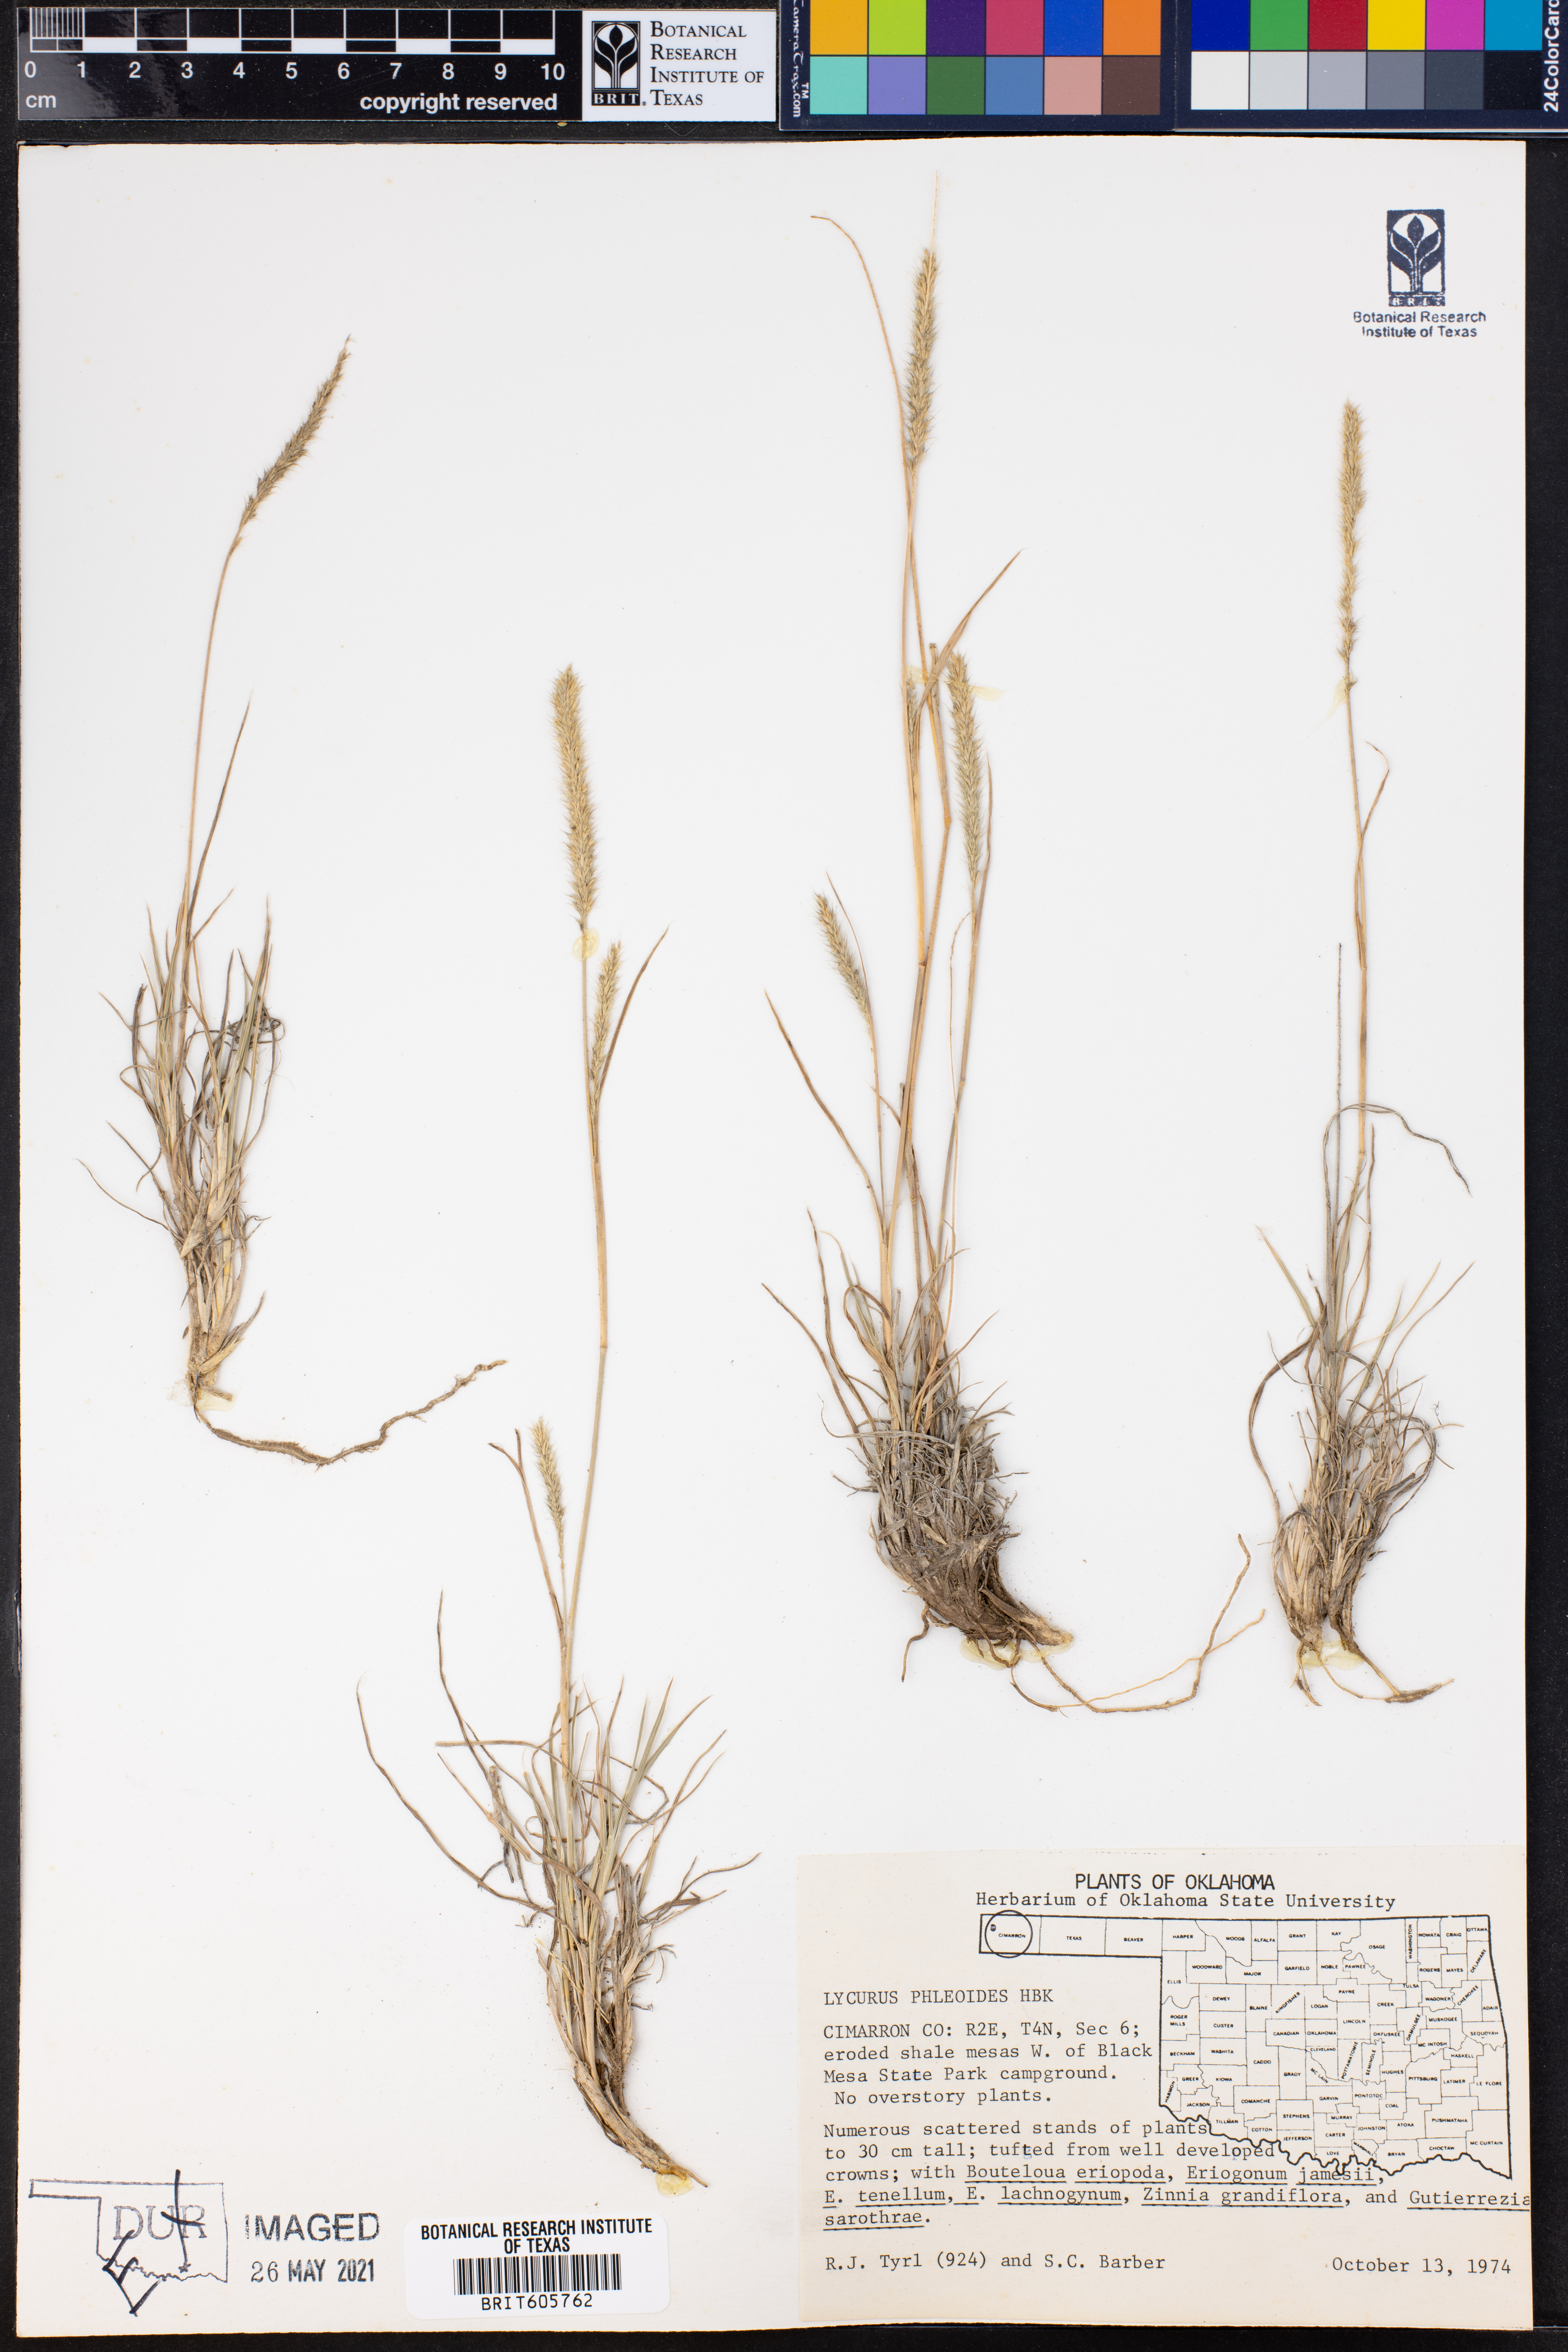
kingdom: Plantae
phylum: Tracheophyta
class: Liliopsida
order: Poales
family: Poaceae
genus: Muhlenbergia
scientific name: Muhlenbergia phleoides
